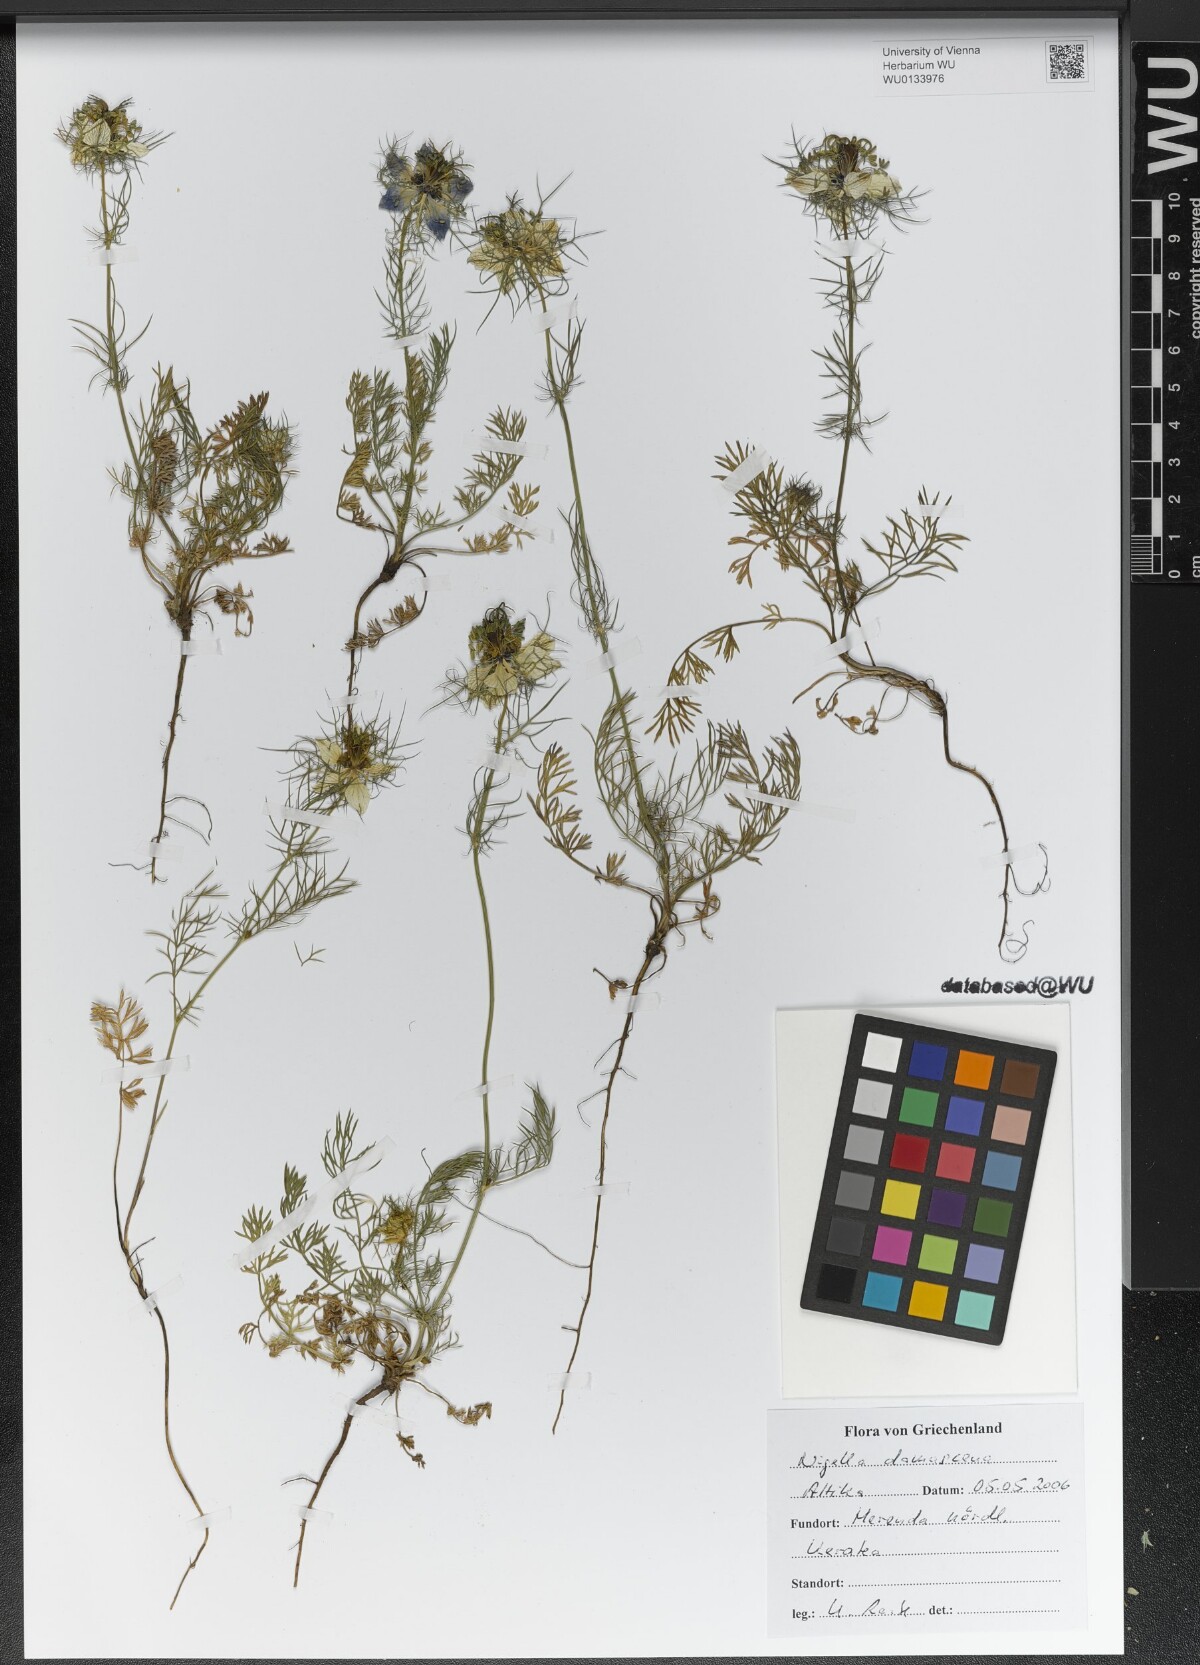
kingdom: Plantae
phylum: Tracheophyta
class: Magnoliopsida
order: Ranunculales
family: Ranunculaceae
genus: Nigella
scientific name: Nigella damascena
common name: Love-in-a-mist
